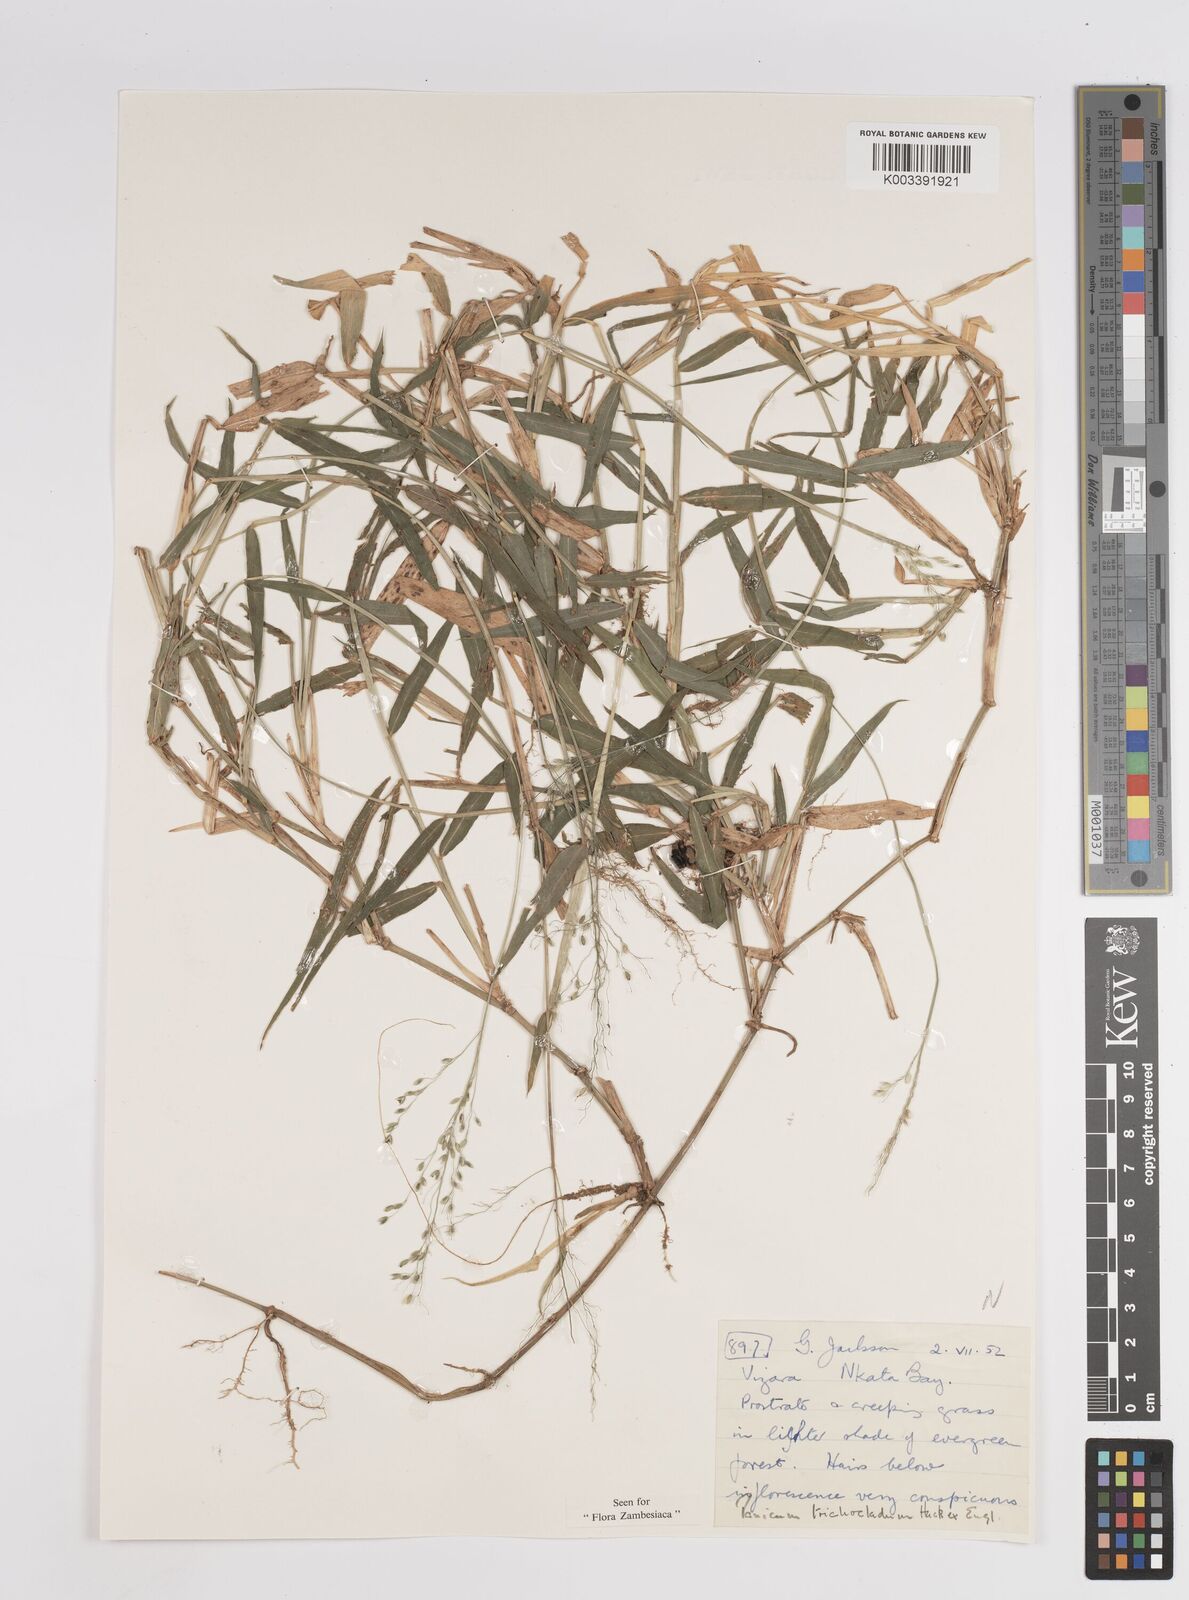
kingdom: Plantae
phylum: Tracheophyta
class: Liliopsida
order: Poales
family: Poaceae
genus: Panicum
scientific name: Panicum trichocladum
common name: Donkey grass
